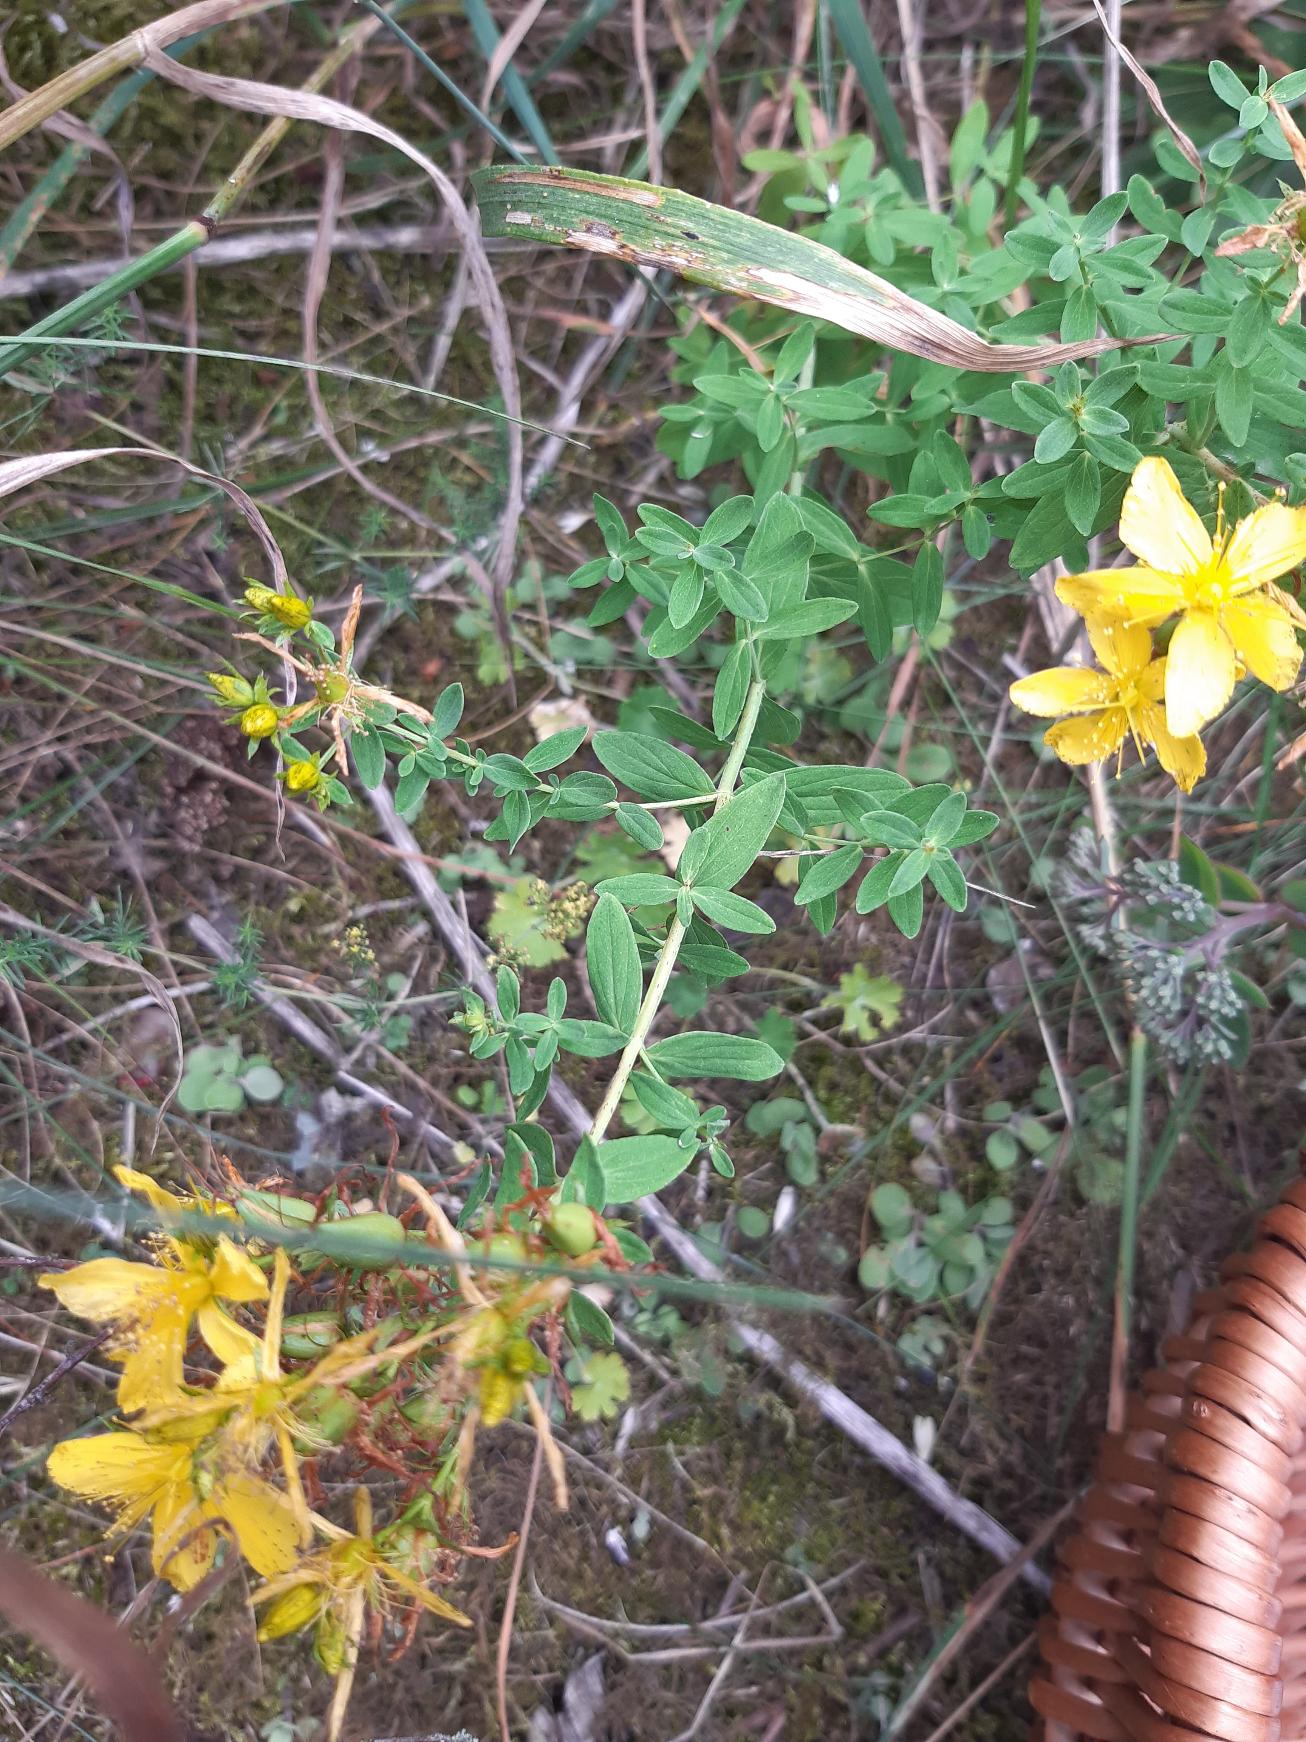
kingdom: Plantae
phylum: Tracheophyta
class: Magnoliopsida
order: Malpighiales
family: Hypericaceae
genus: Hypericum
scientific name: Hypericum perforatum
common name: Prikbladet perikon
